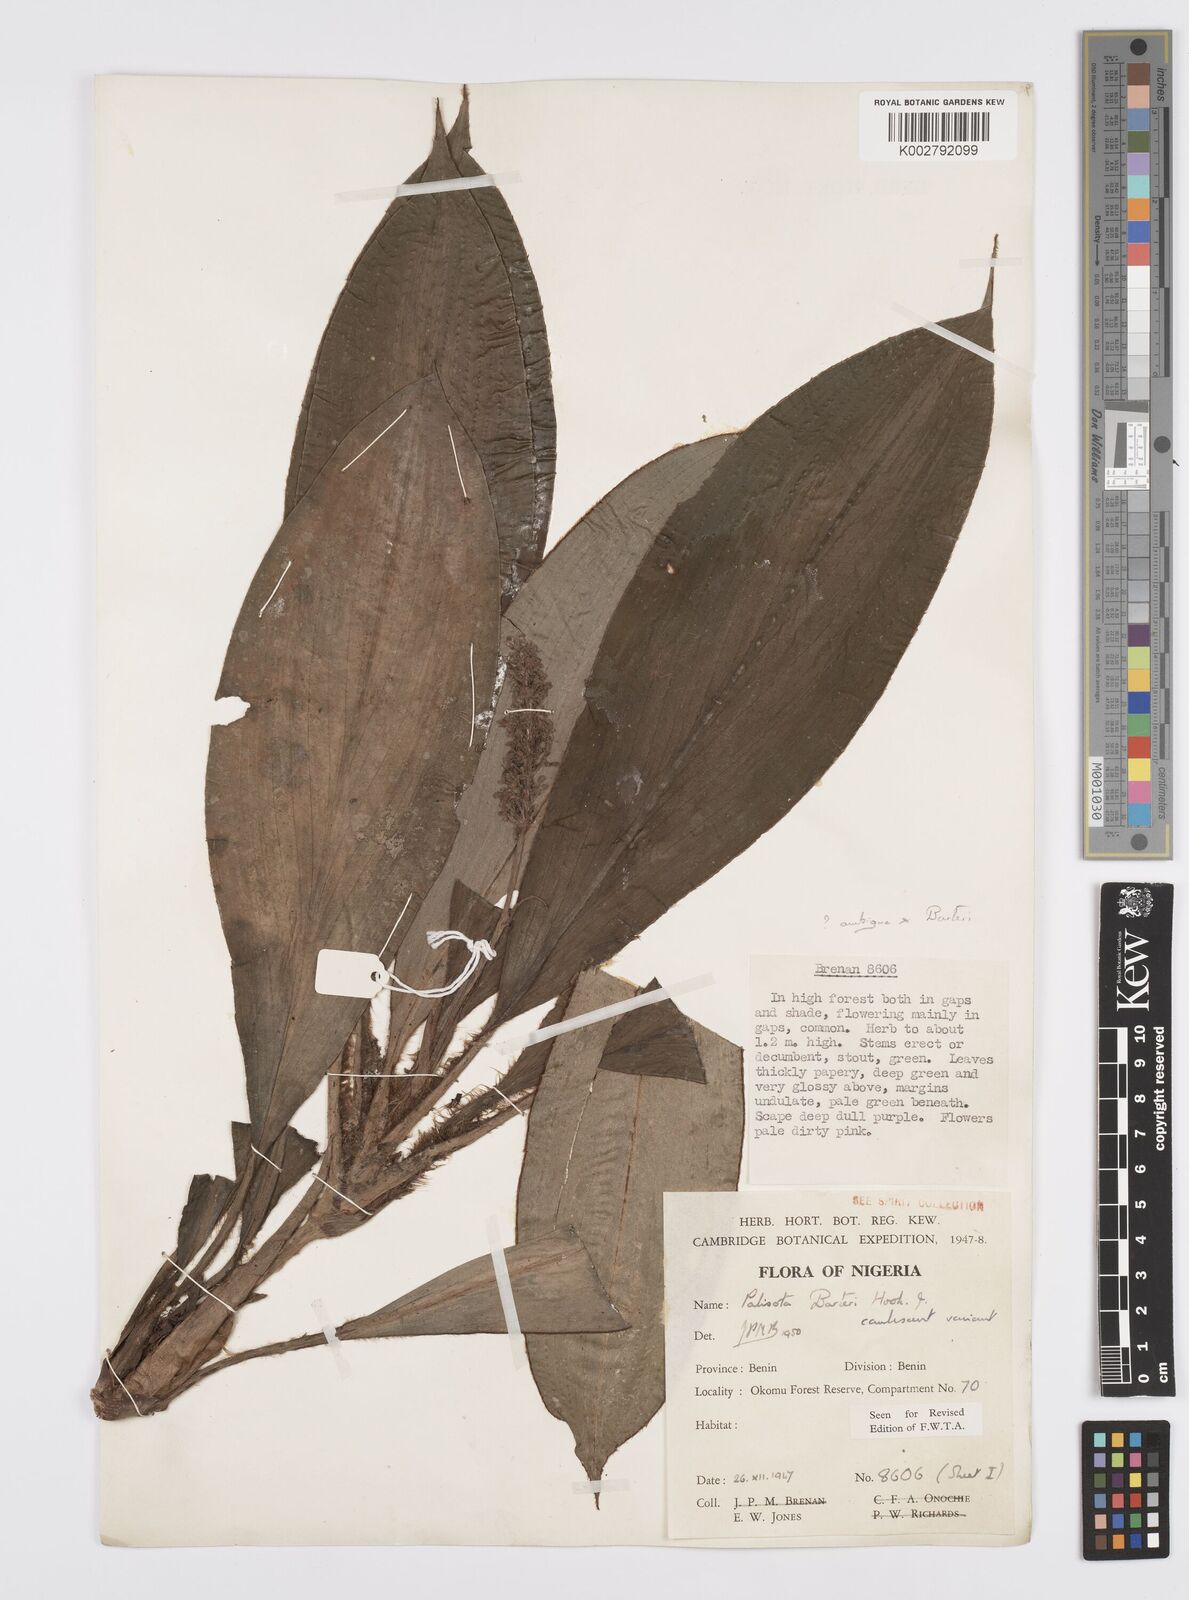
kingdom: Plantae
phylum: Tracheophyta
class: Liliopsida
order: Commelinales
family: Commelinaceae
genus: Palisota
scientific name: Palisota barteri
